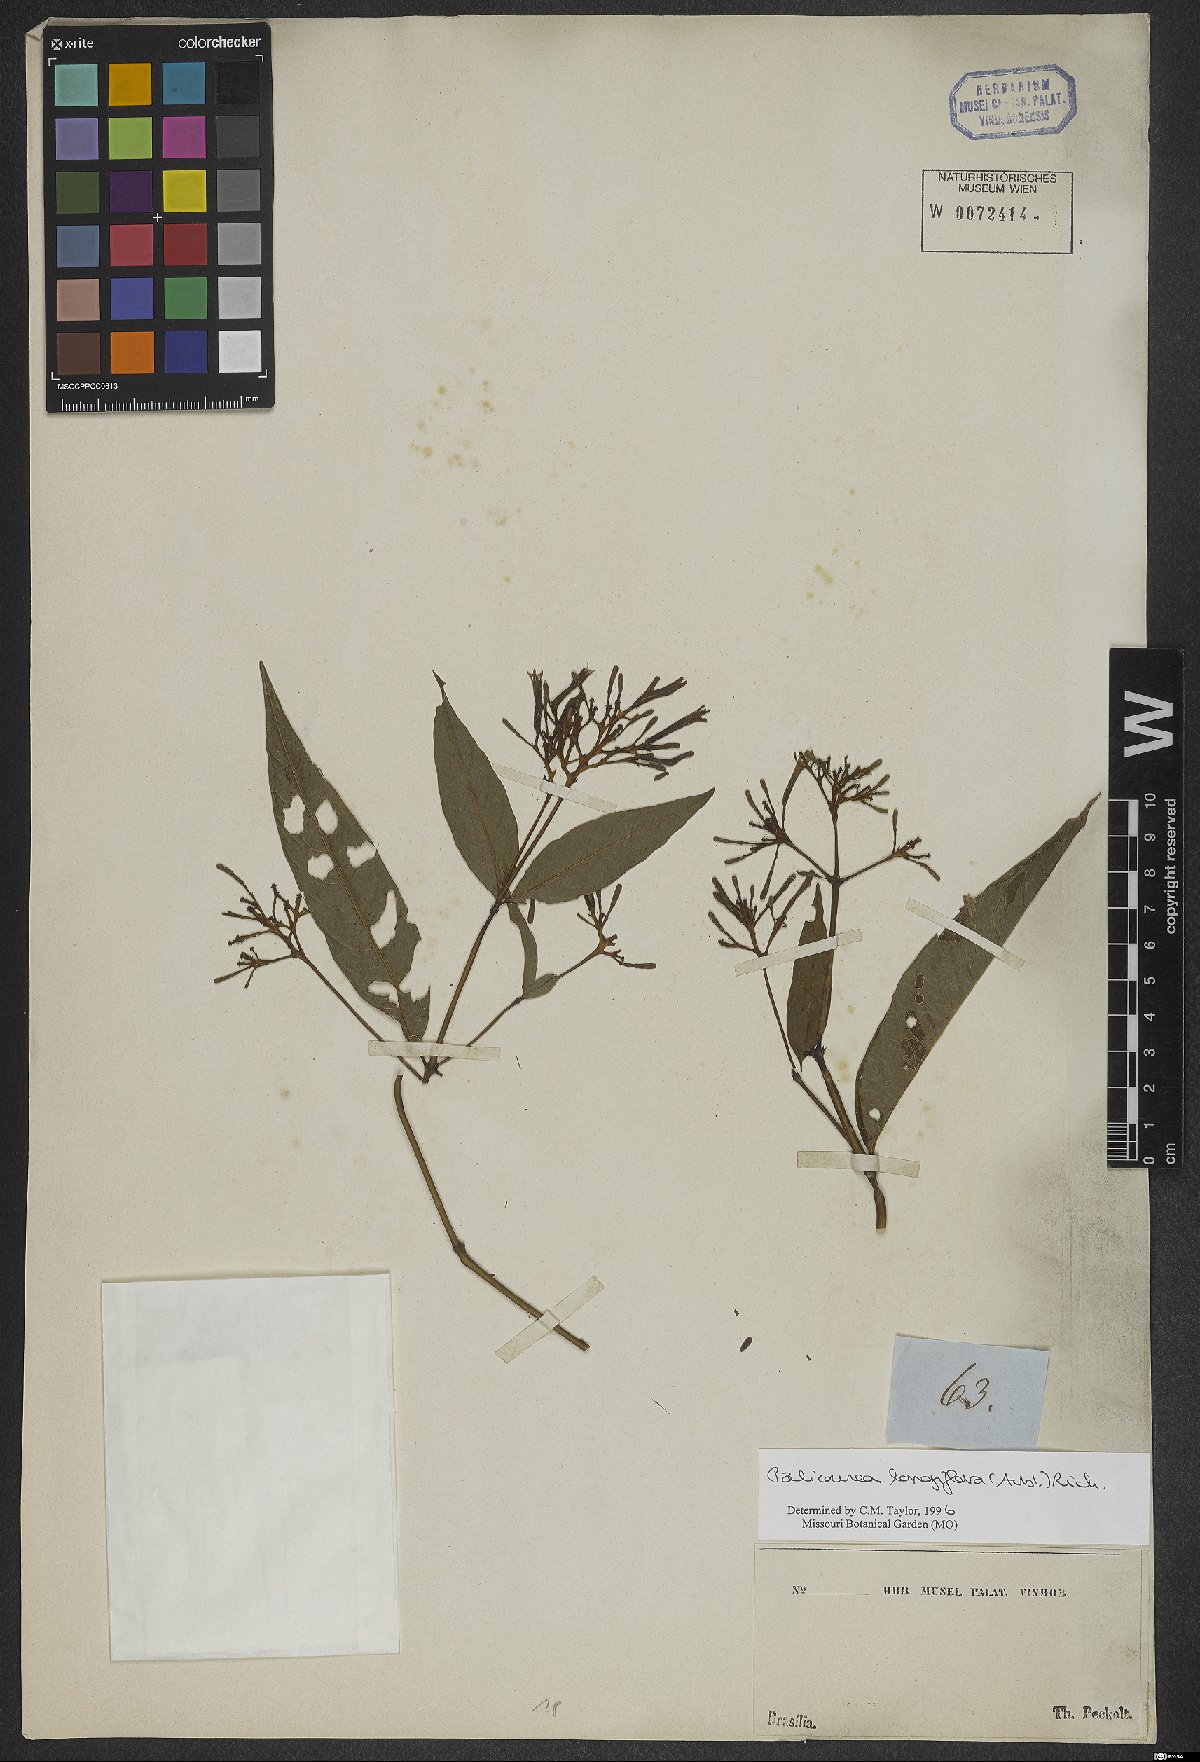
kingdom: Plantae
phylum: Tracheophyta
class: Magnoliopsida
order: Gentianales
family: Rubiaceae
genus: Palicourea
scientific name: Palicourea longiflora
